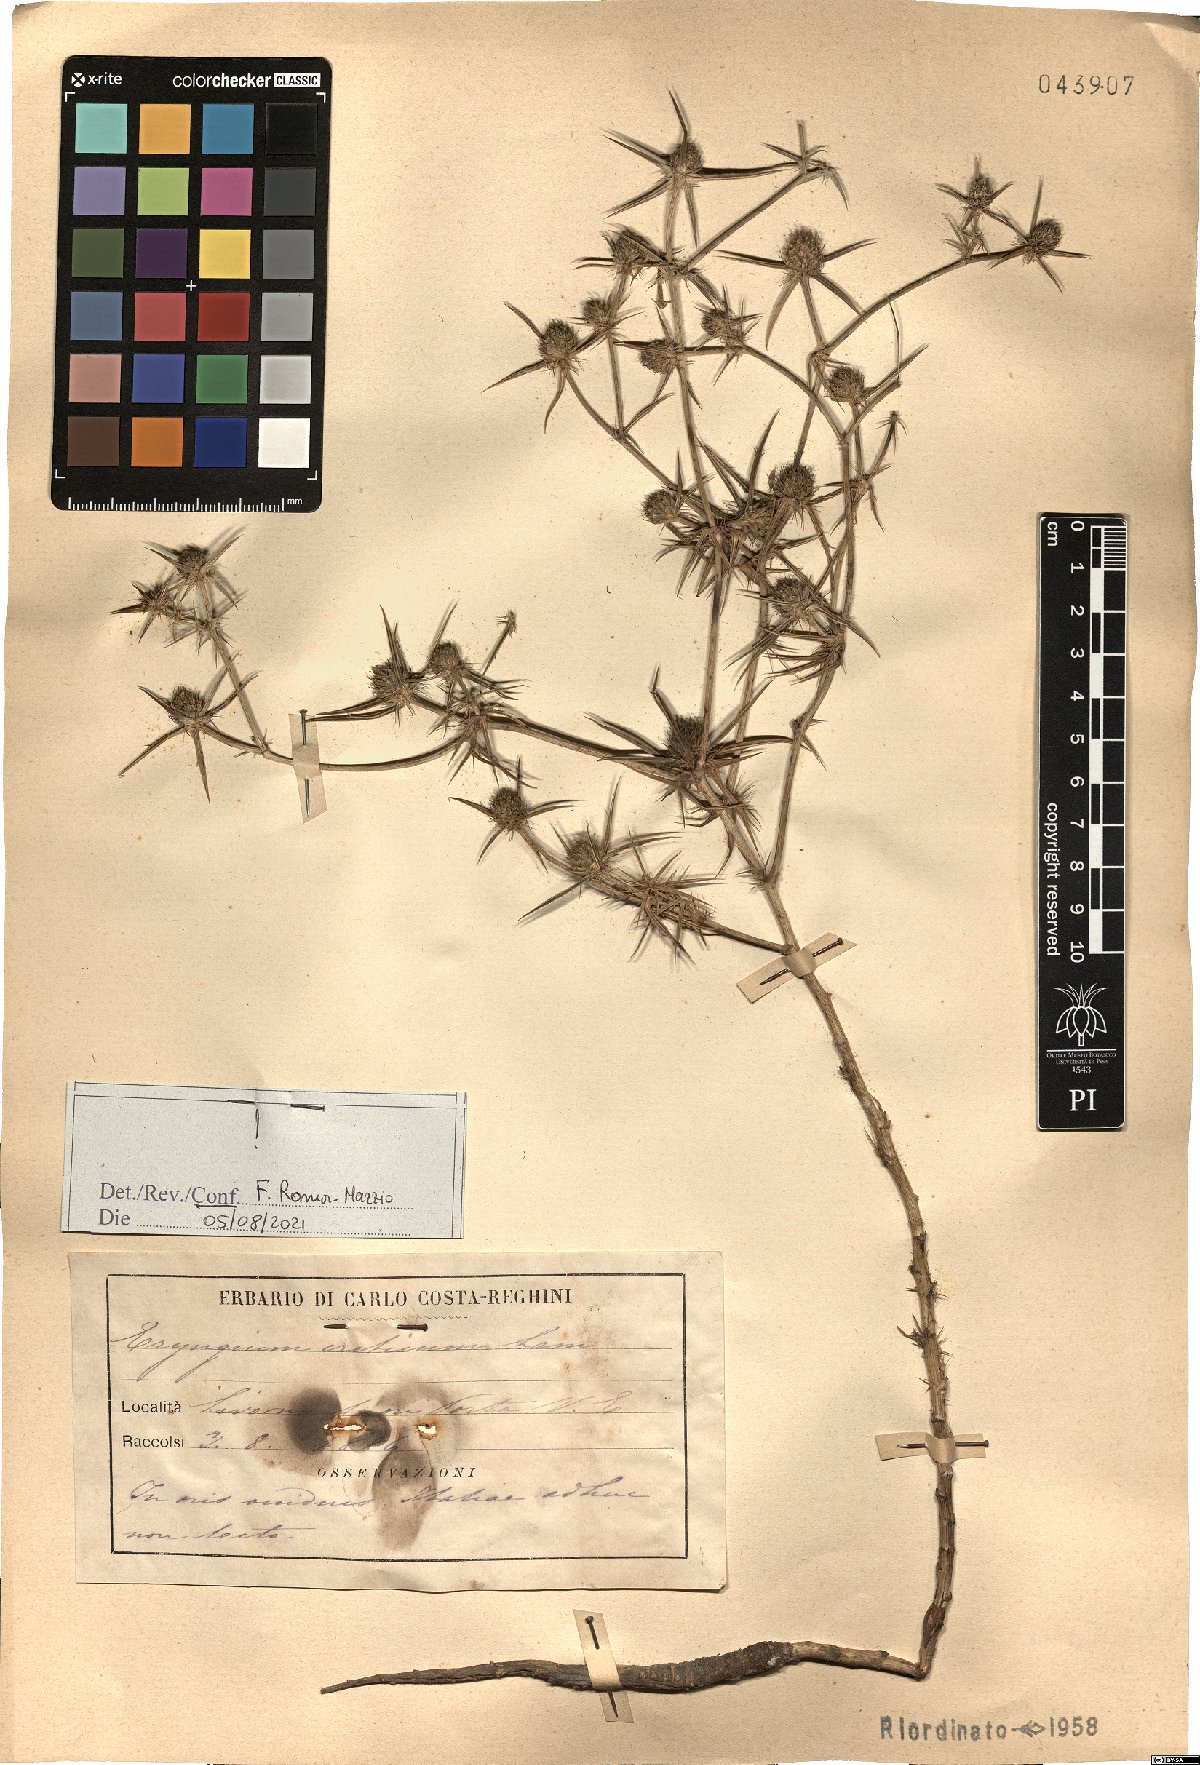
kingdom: Plantae
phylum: Tracheophyta
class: Magnoliopsida
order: Apiales
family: Apiaceae
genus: Eryngium
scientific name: Eryngium creticum
